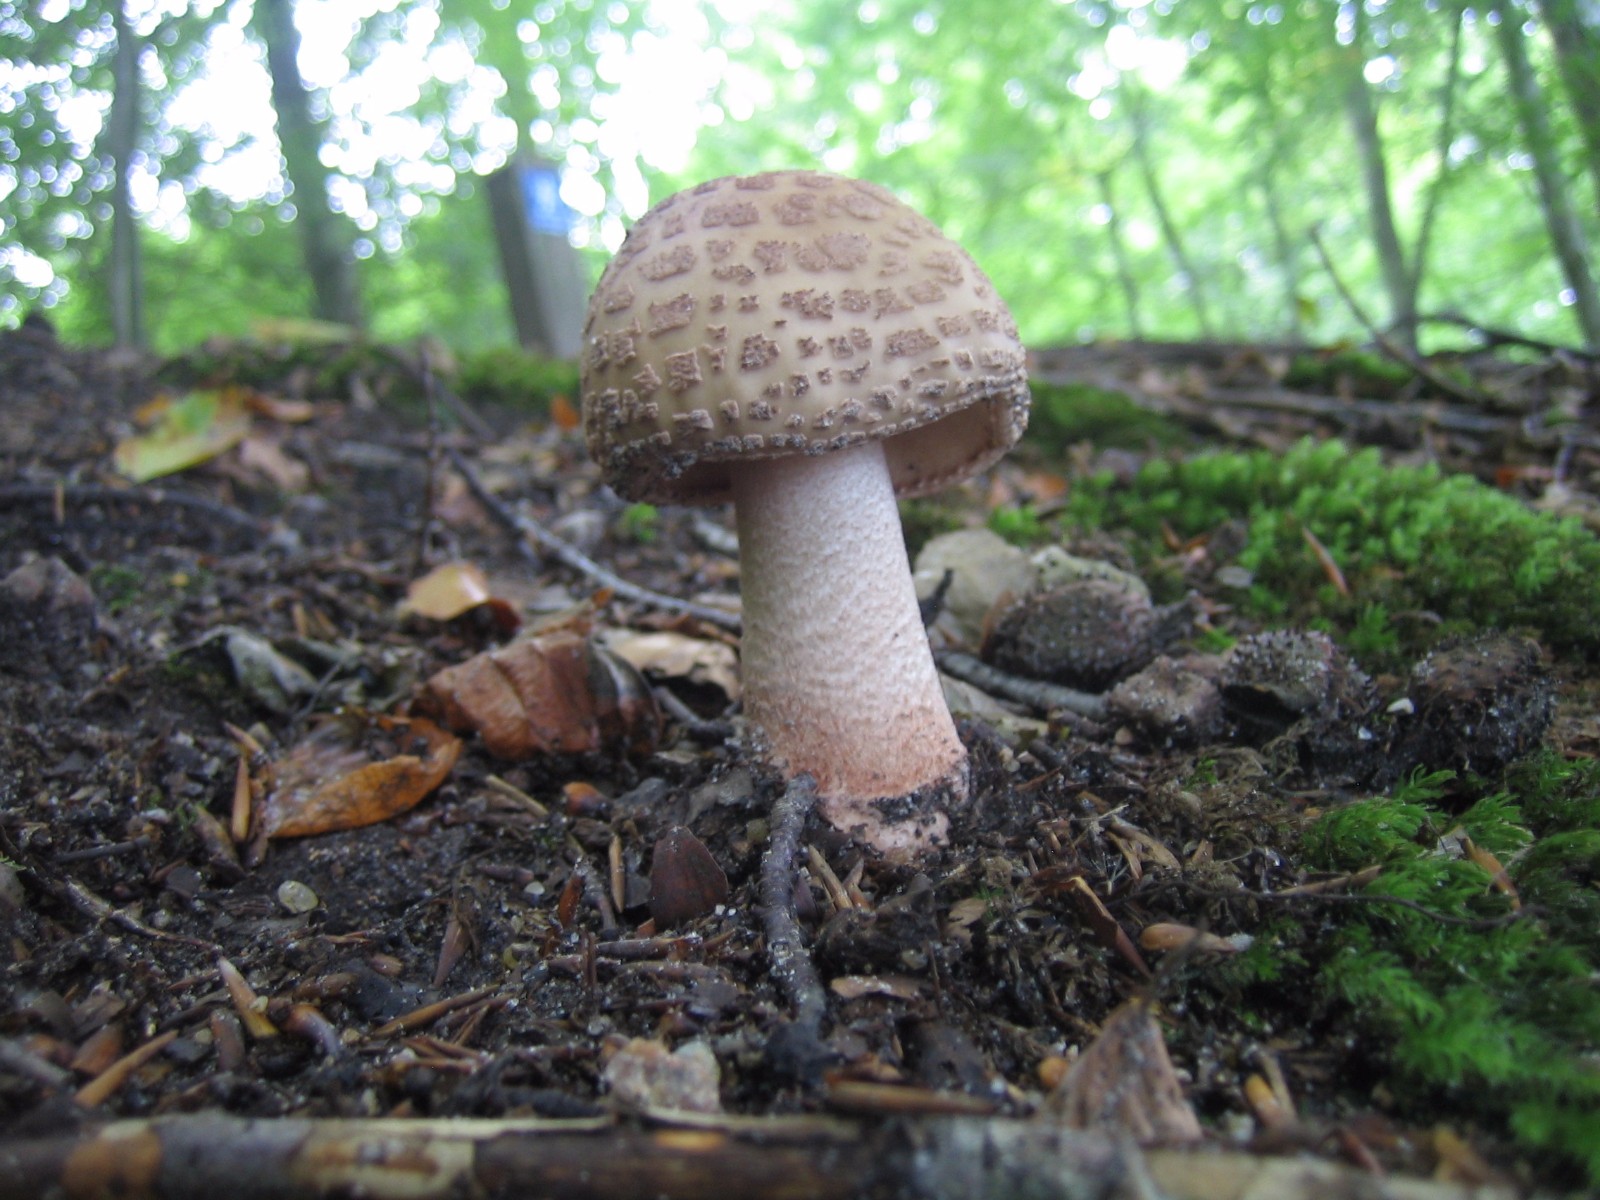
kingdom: Fungi
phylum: Basidiomycota
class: Agaricomycetes
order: Agaricales
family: Amanitaceae
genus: Amanita
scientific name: Amanita rubescens
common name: rødmende fluesvamp
